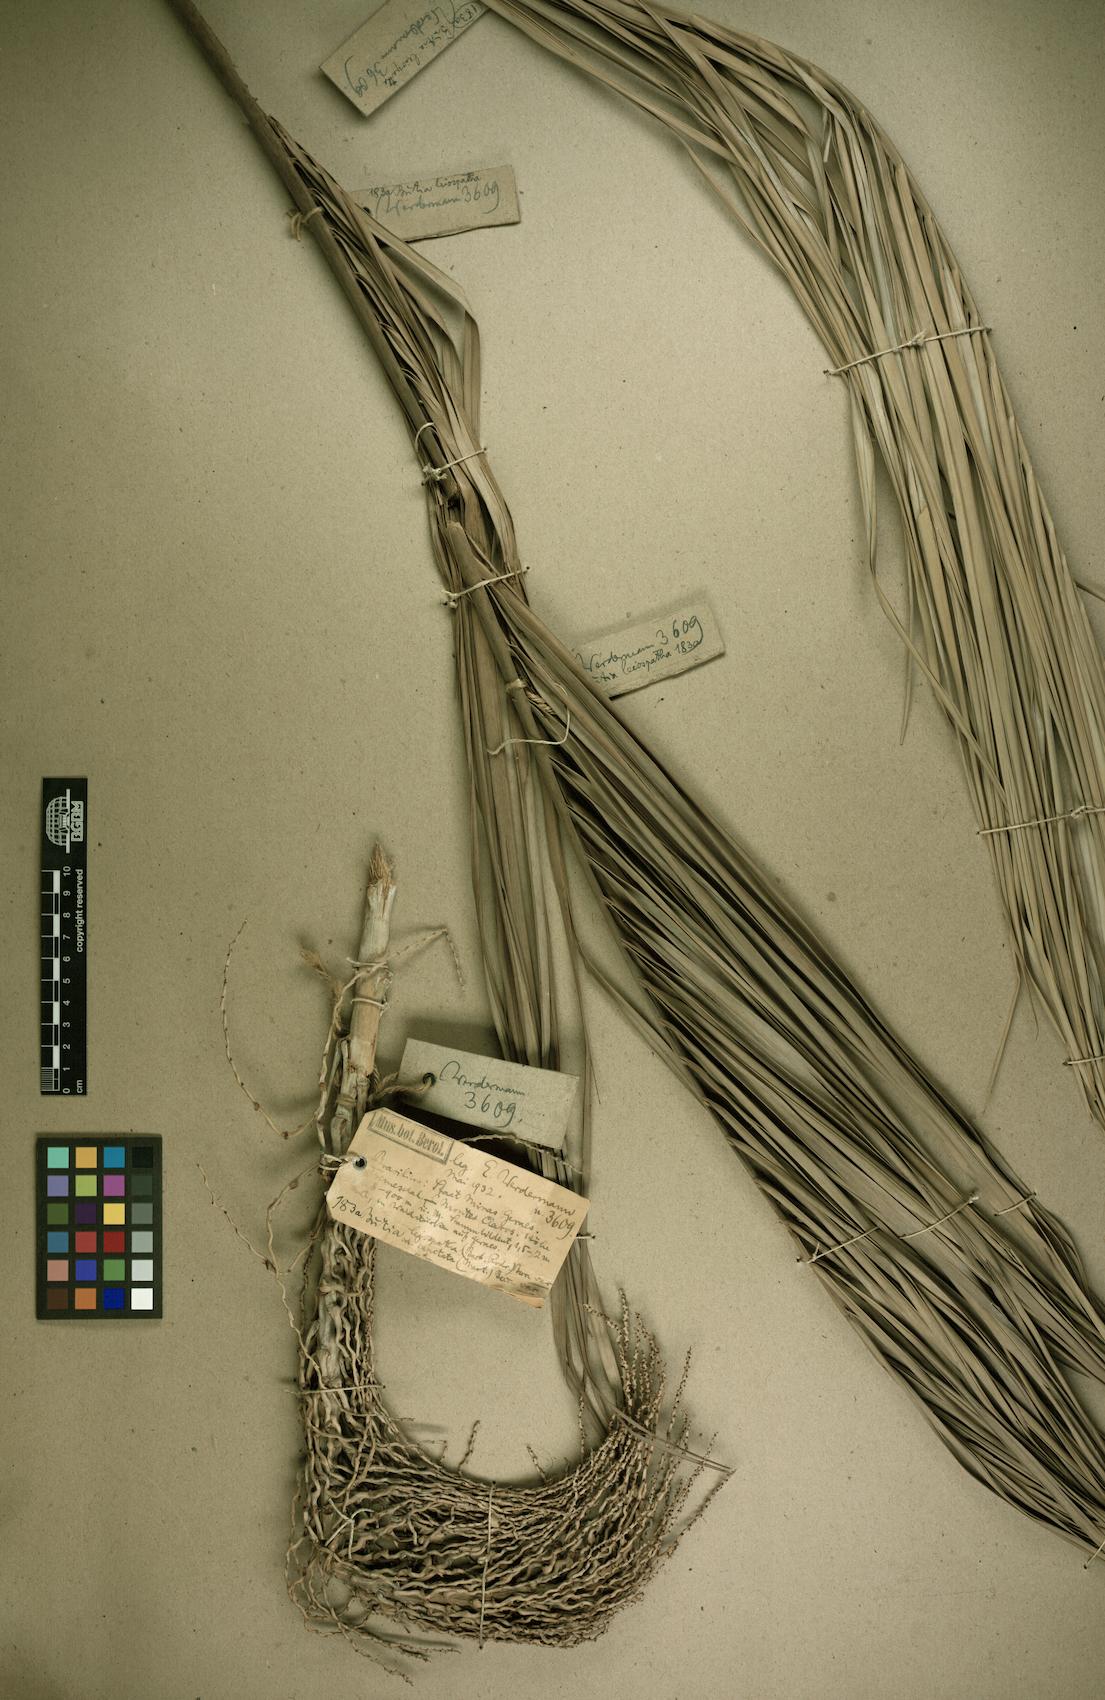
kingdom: Plantae
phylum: Tracheophyta
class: Liliopsida
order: Arecales
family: Arecaceae
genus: Butia
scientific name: Butia capitata
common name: South american jelly palm
